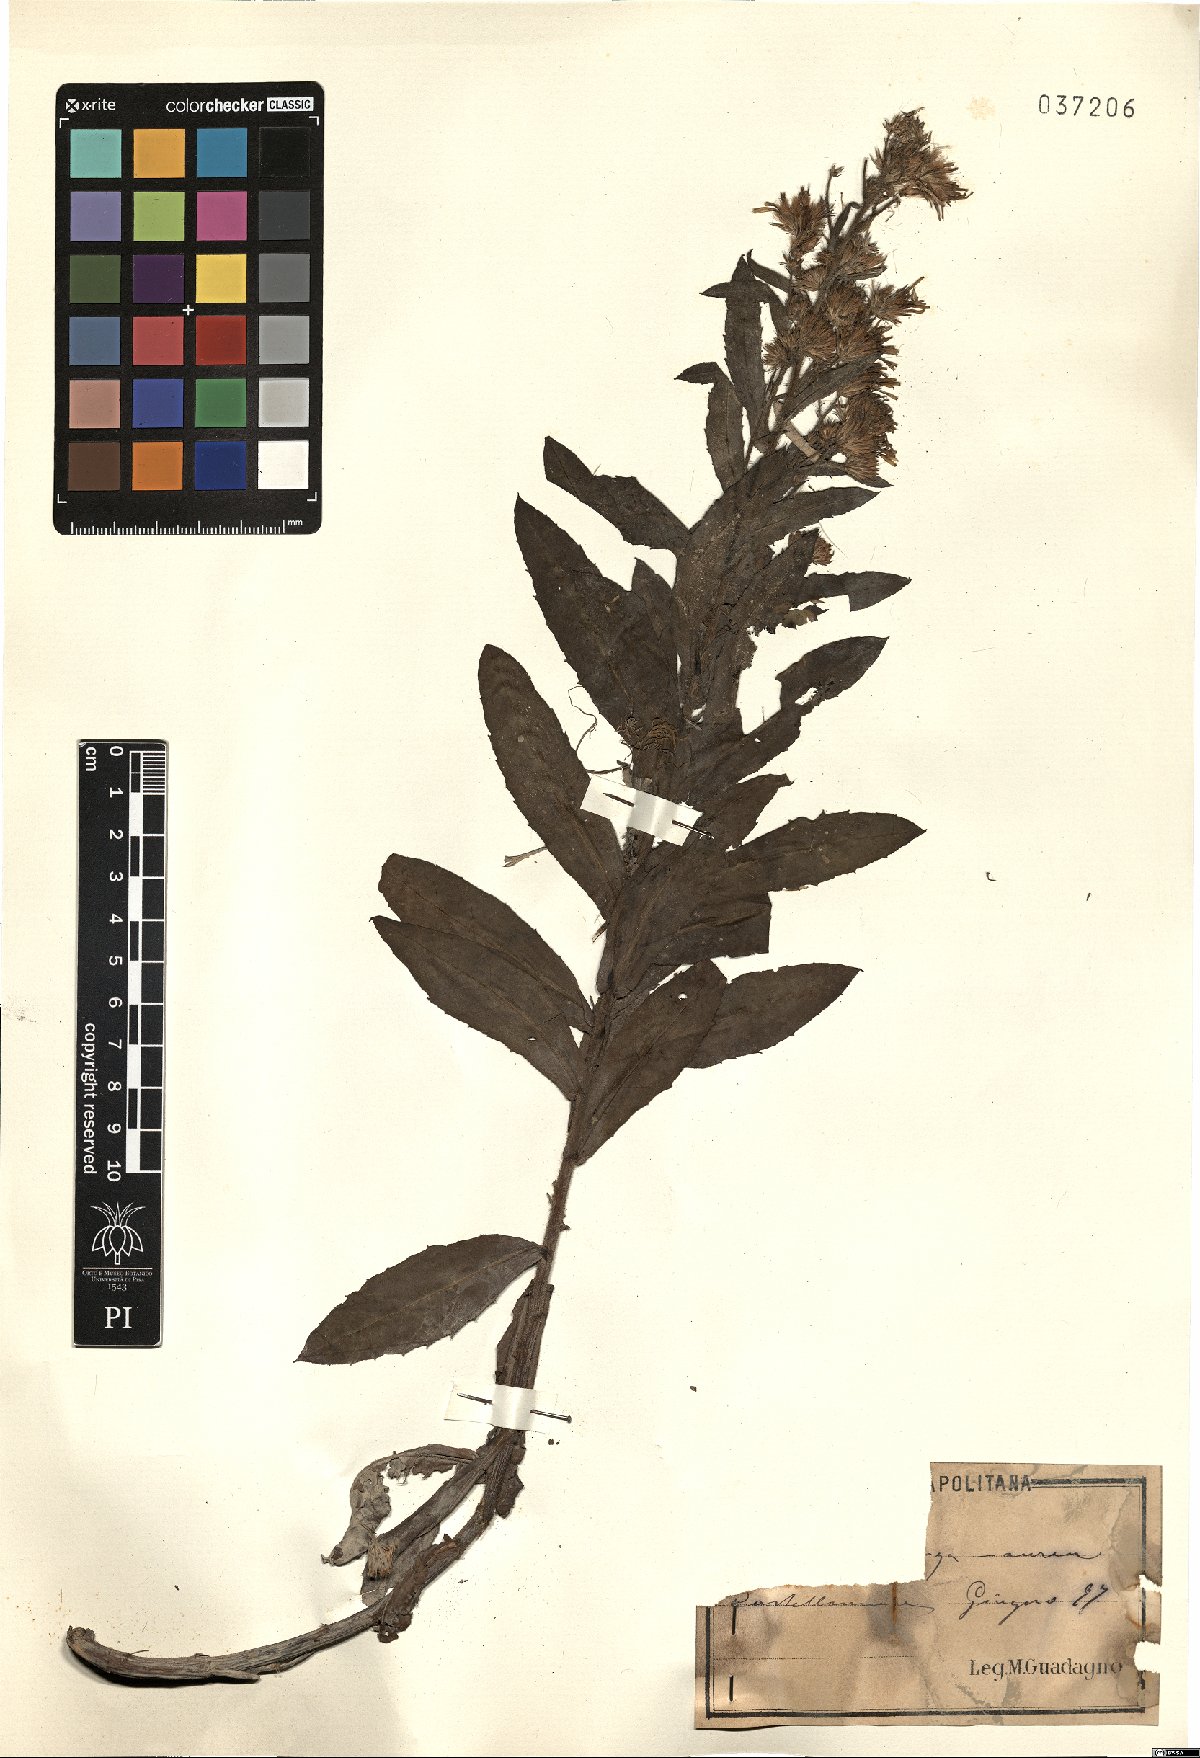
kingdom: Plantae
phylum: Tracheophyta
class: Magnoliopsida
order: Asterales
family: Asteraceae
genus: Inula
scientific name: Inula
